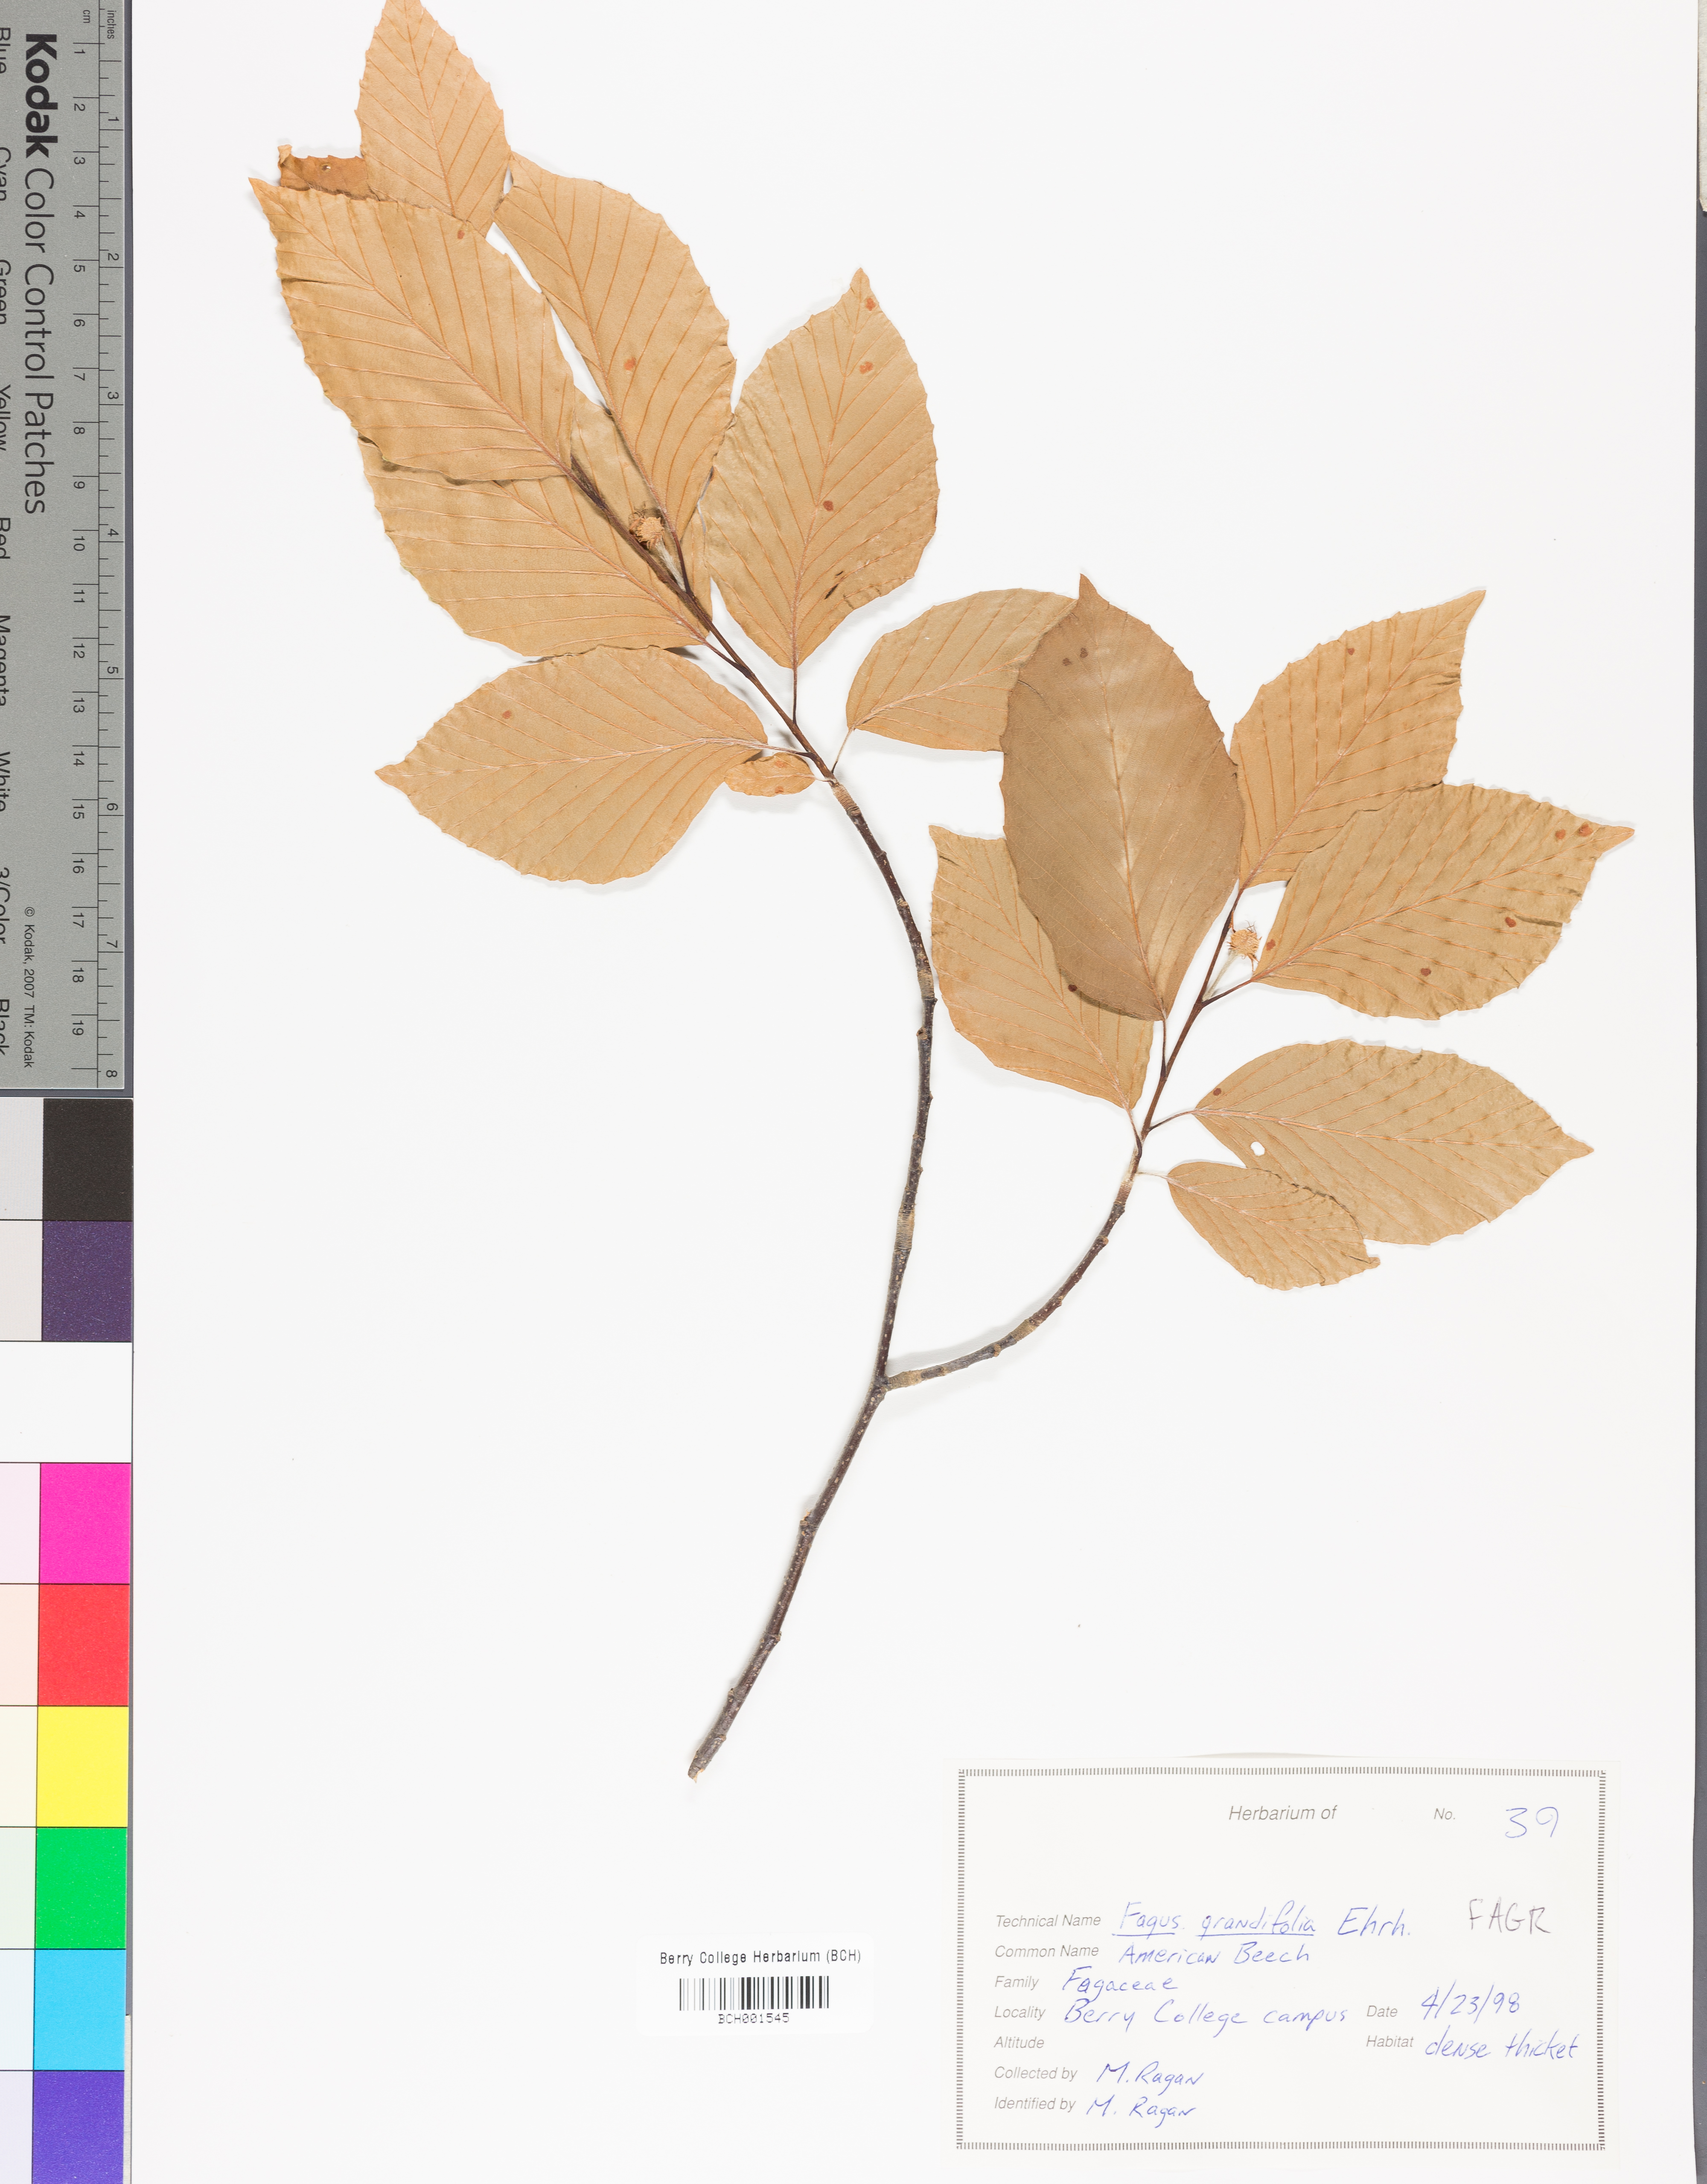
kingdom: Plantae
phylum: Tracheophyta
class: Magnoliopsida
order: Fagales
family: Fagaceae
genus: Fagus
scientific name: Fagus grandifolia
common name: American beech
